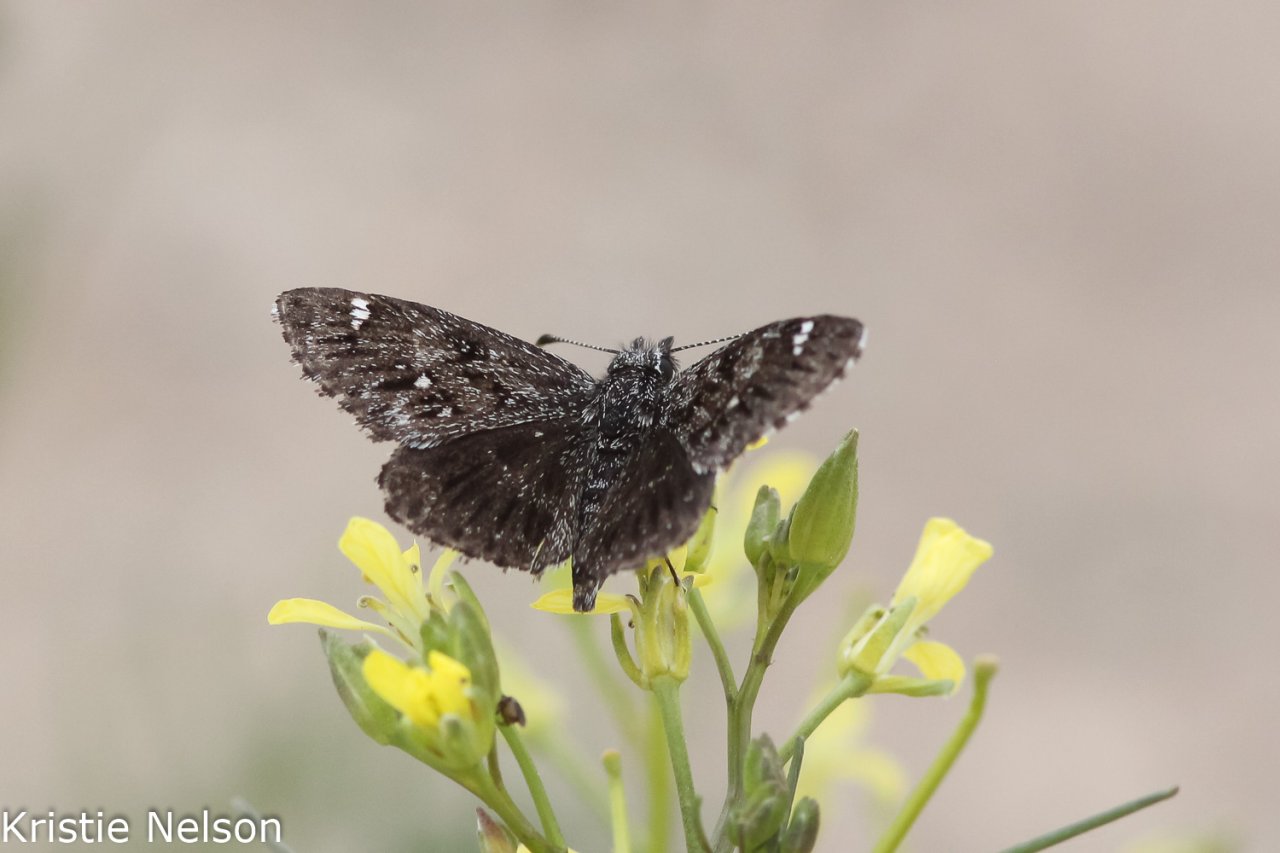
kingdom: Animalia
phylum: Arthropoda
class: Insecta
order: Lepidoptera
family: Hesperiidae
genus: Hesperopsis
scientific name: Hesperopsis alpheus
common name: Saltbush Sootywing
